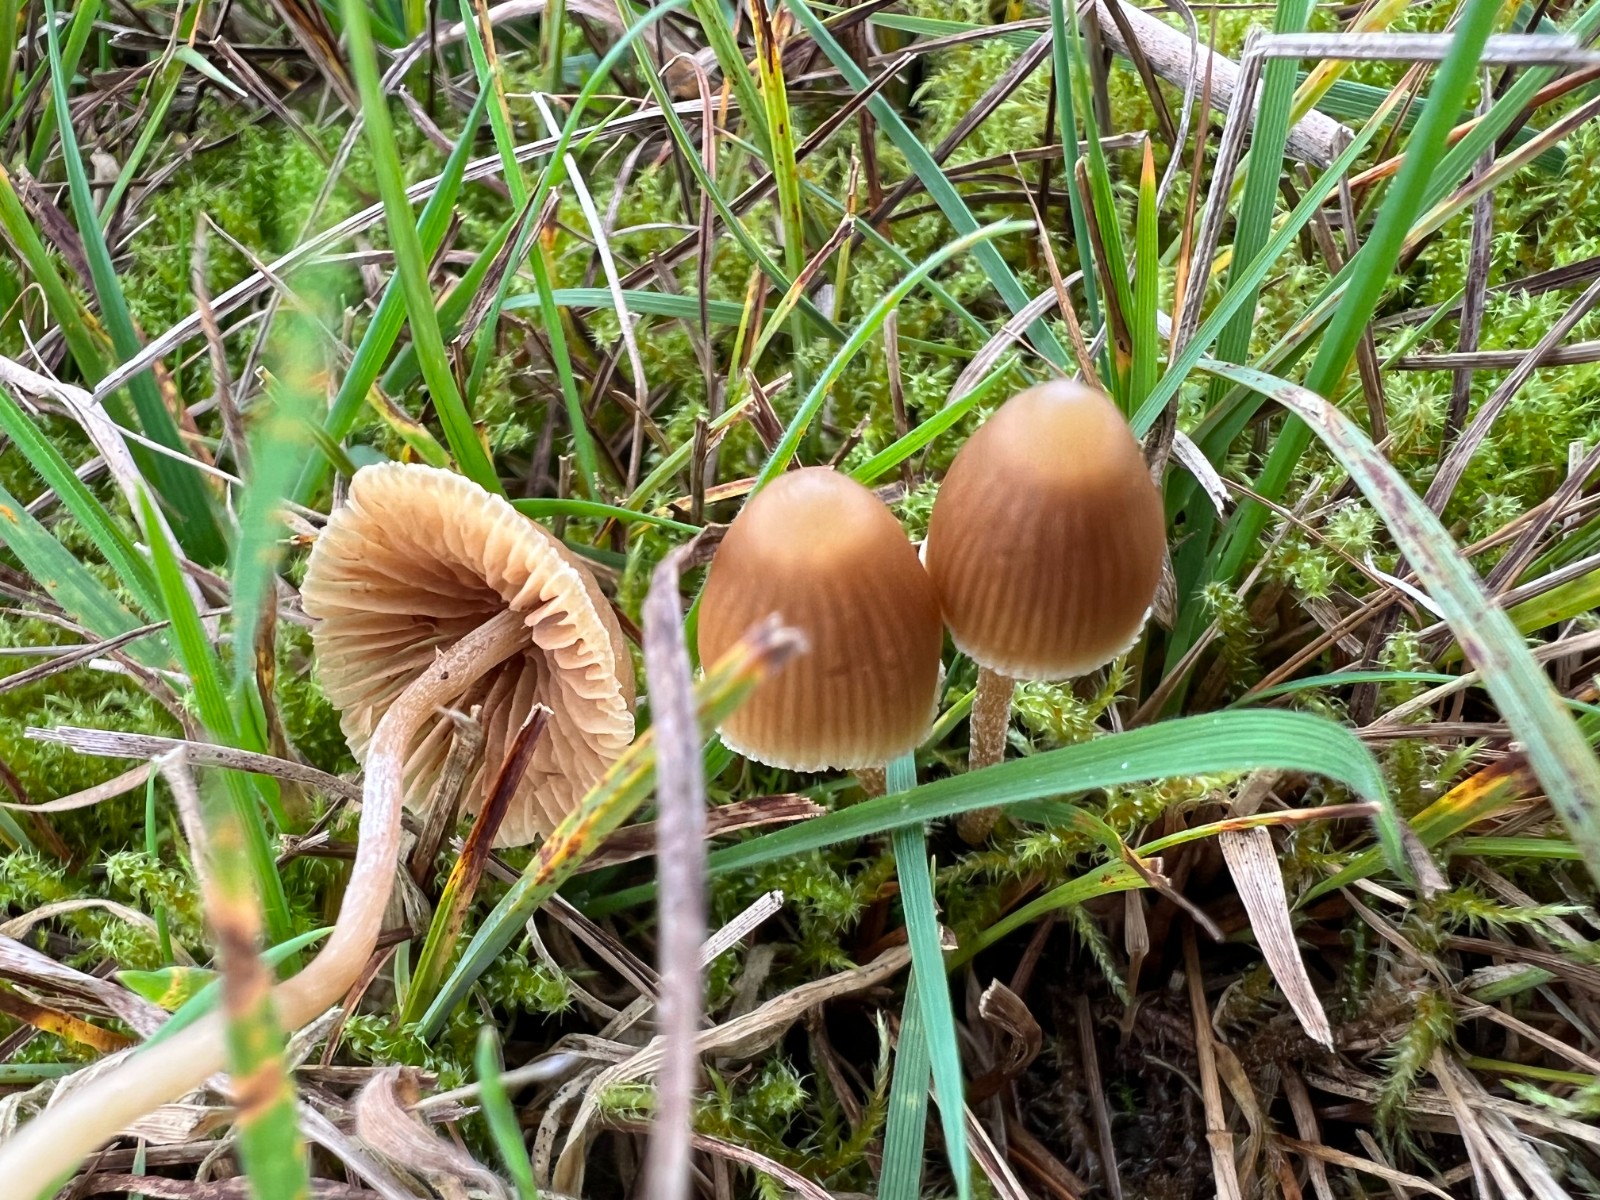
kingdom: Fungi
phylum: Basidiomycota
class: Agaricomycetes
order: Agaricales
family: Hymenogastraceae
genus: Galerina
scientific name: Galerina mniophila
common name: olivengul hjelmhat
